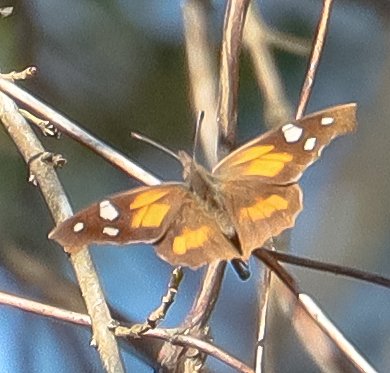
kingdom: Animalia
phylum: Arthropoda
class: Insecta
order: Lepidoptera
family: Nymphalidae
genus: Libytheana
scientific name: Libytheana carinenta
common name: American Snout
